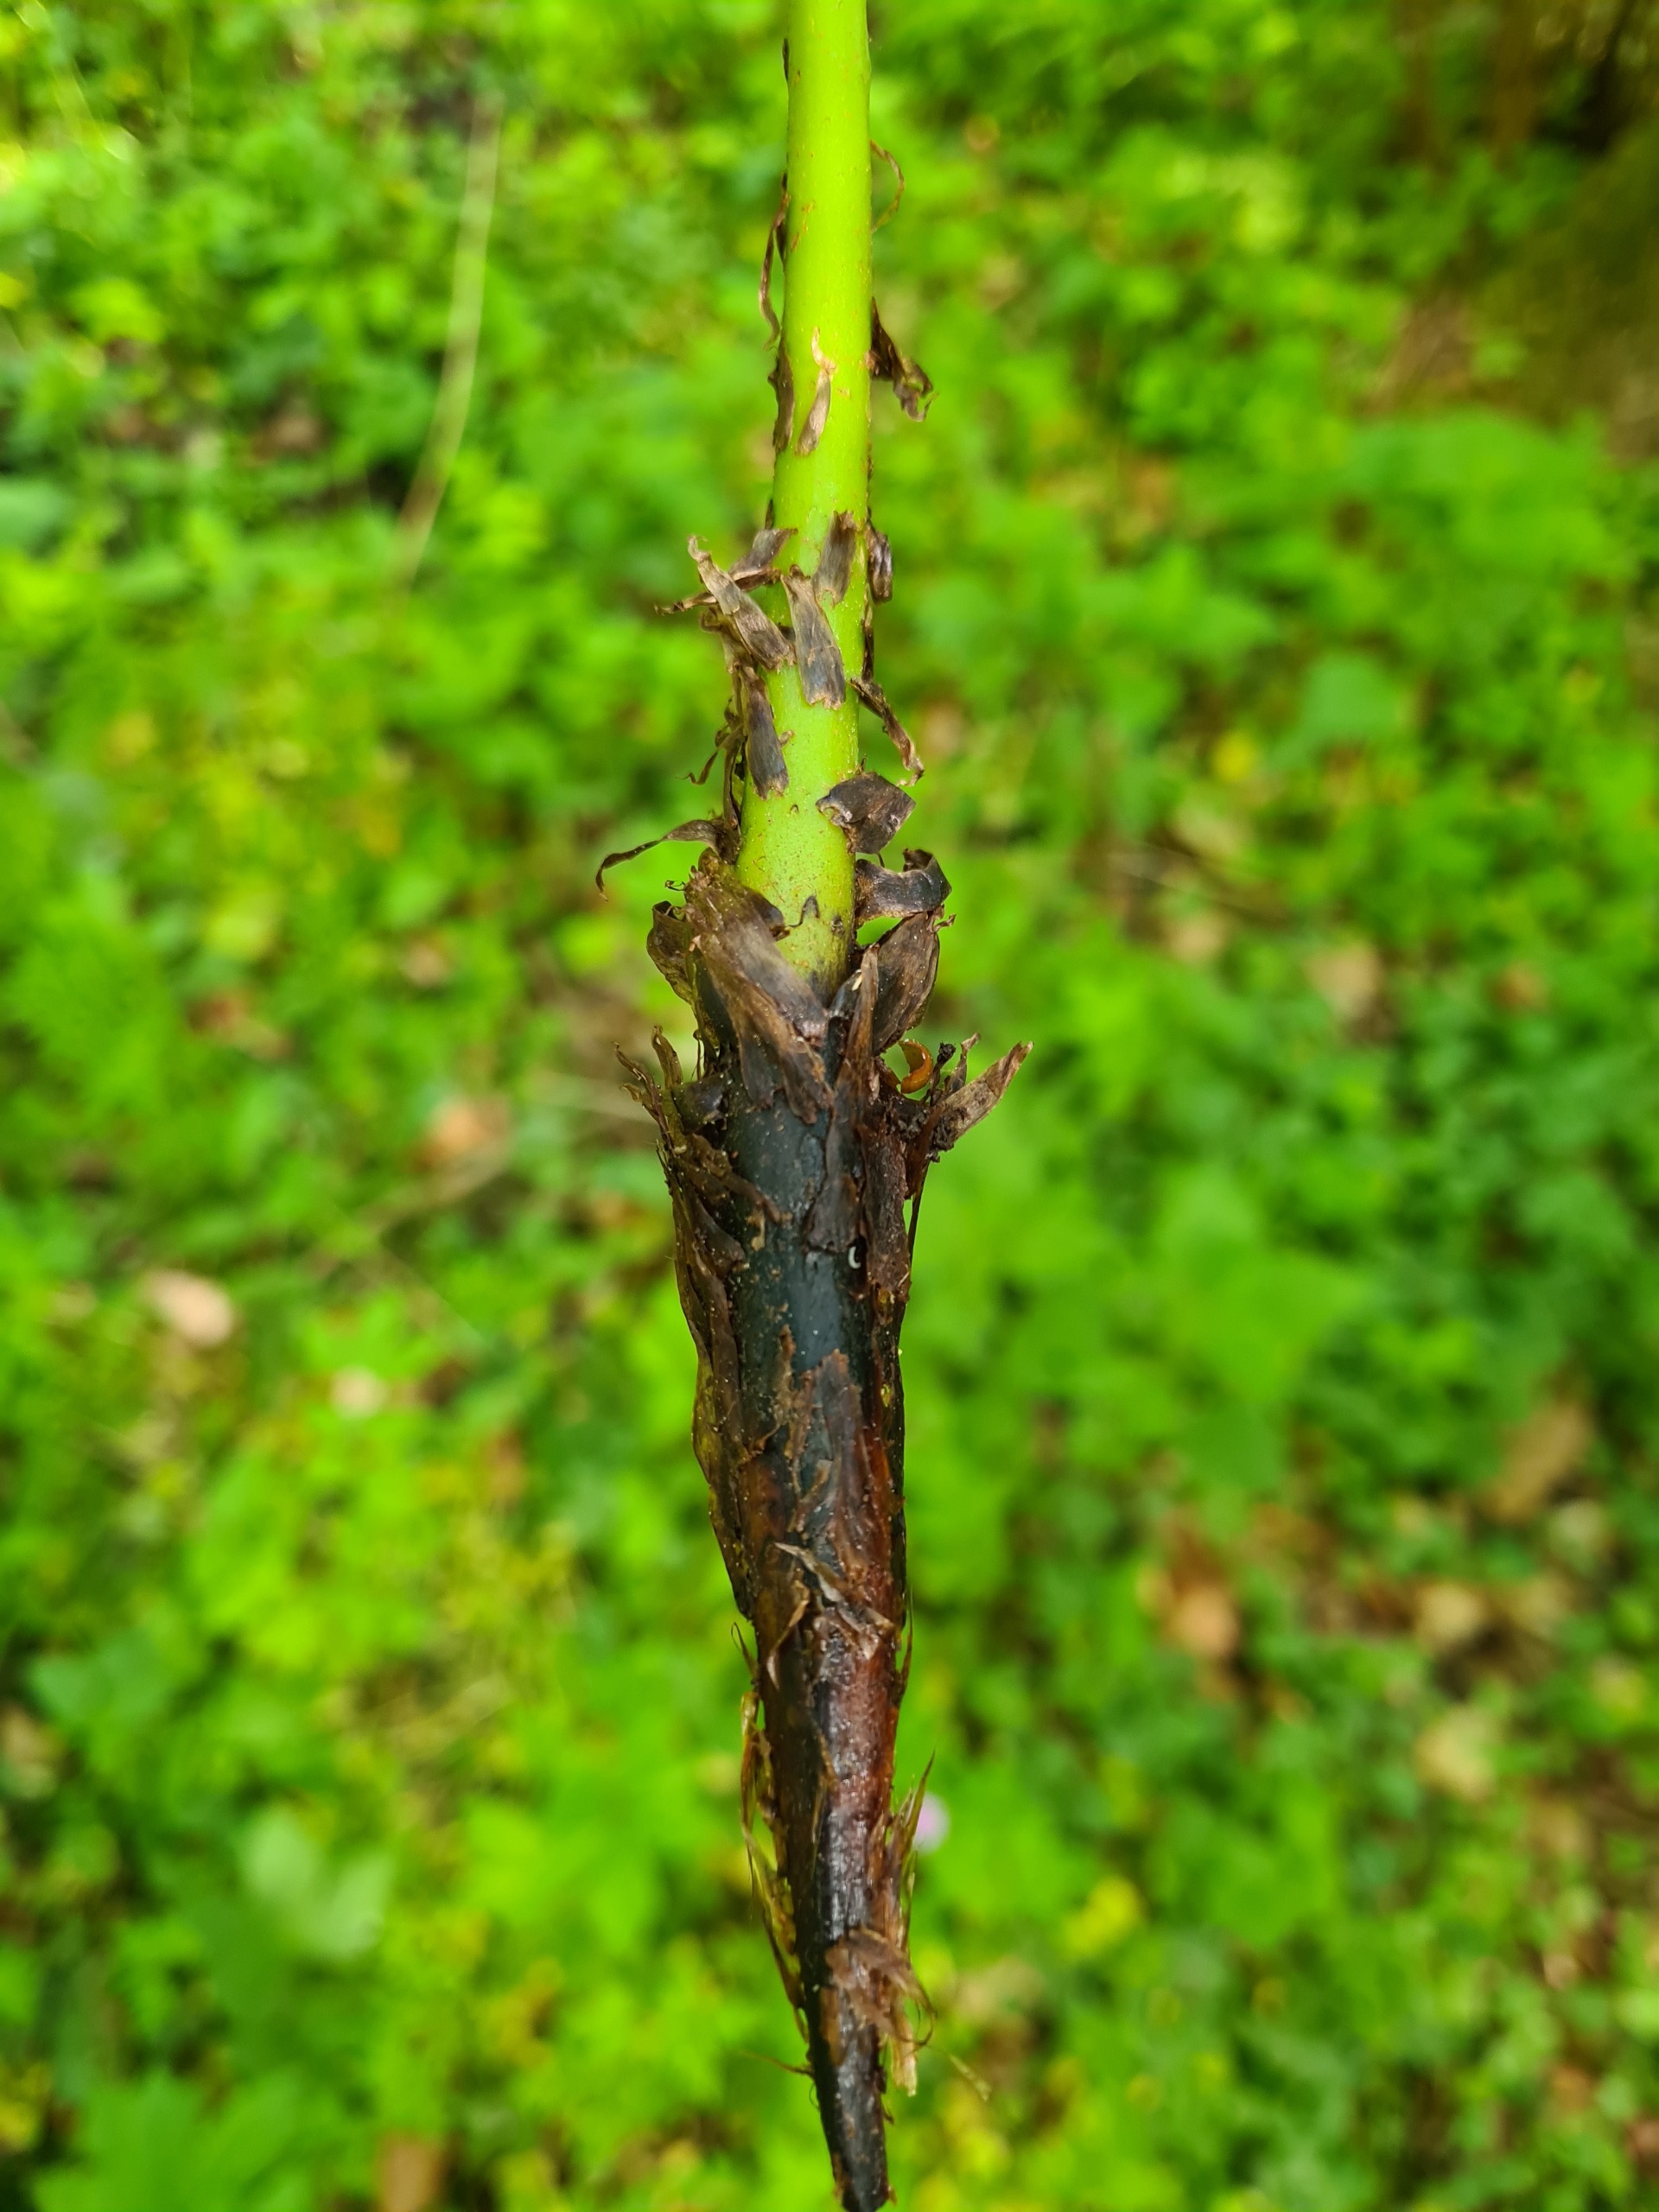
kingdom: Plantae
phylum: Tracheophyta
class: Polypodiopsida
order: Polypodiales
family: Athyriaceae
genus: Athyrium
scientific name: Athyrium filix-femina
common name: Fjerbregne
